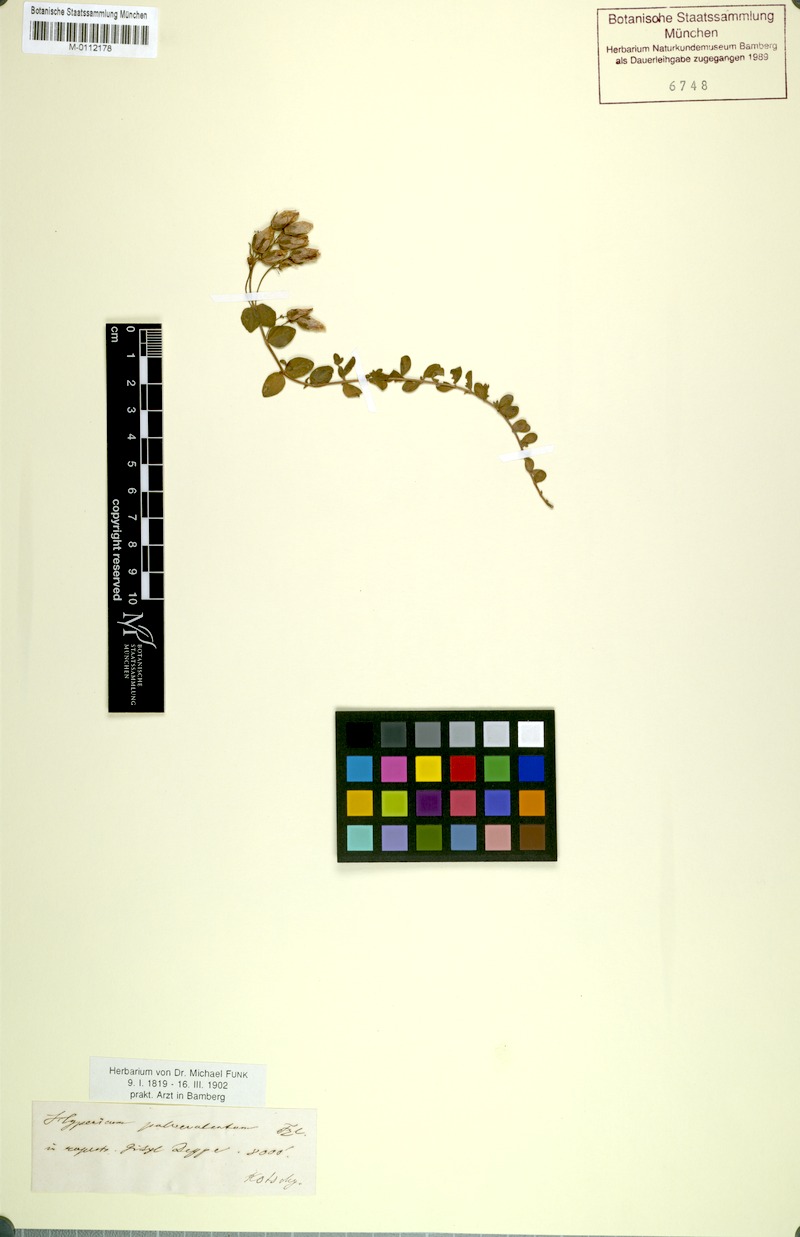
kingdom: Plantae
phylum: Tracheophyta
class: Magnoliopsida
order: Malpighiales
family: Hypericaceae
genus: Hypericum
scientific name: Hypericum origanifolium
